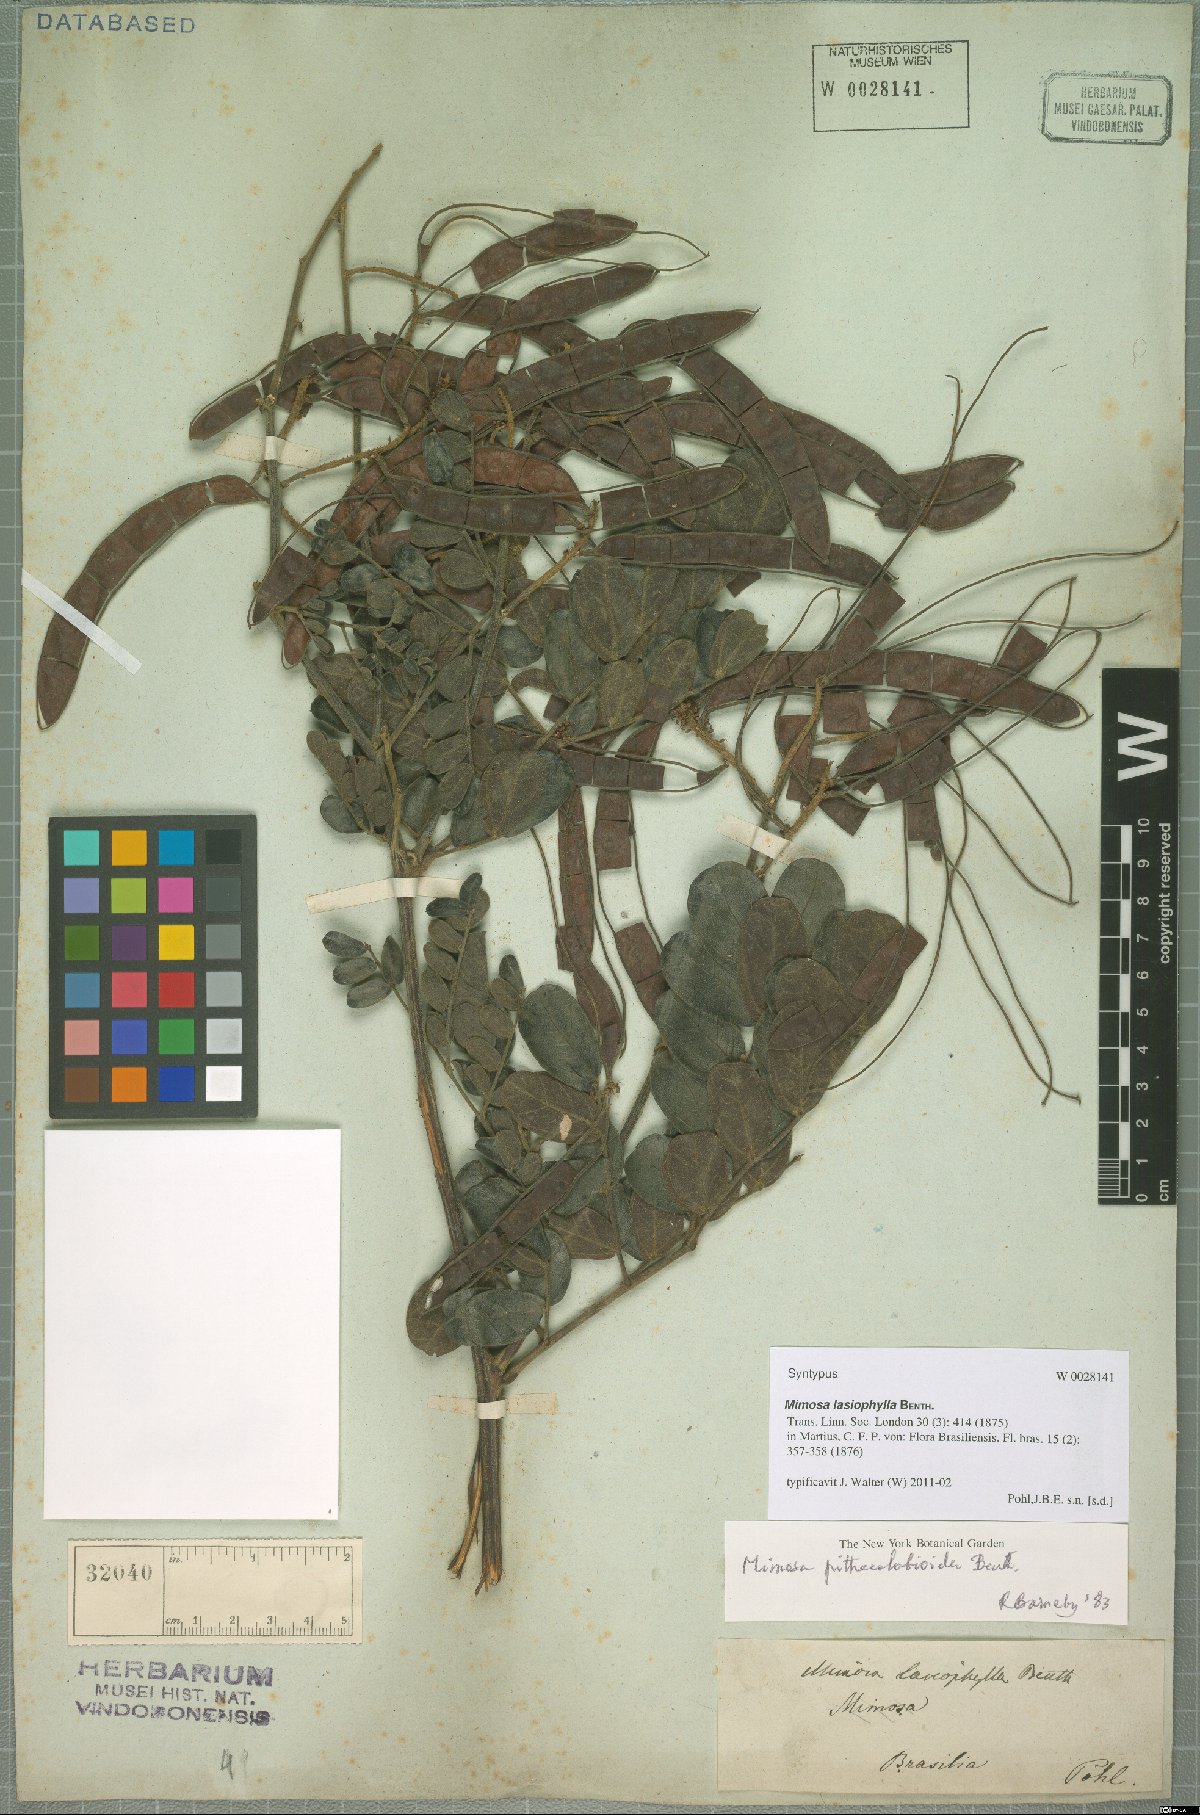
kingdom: Plantae
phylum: Tracheophyta
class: Magnoliopsida
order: Fabales
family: Fabaceae
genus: Mimosa
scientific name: Mimosa pithecolobioides
